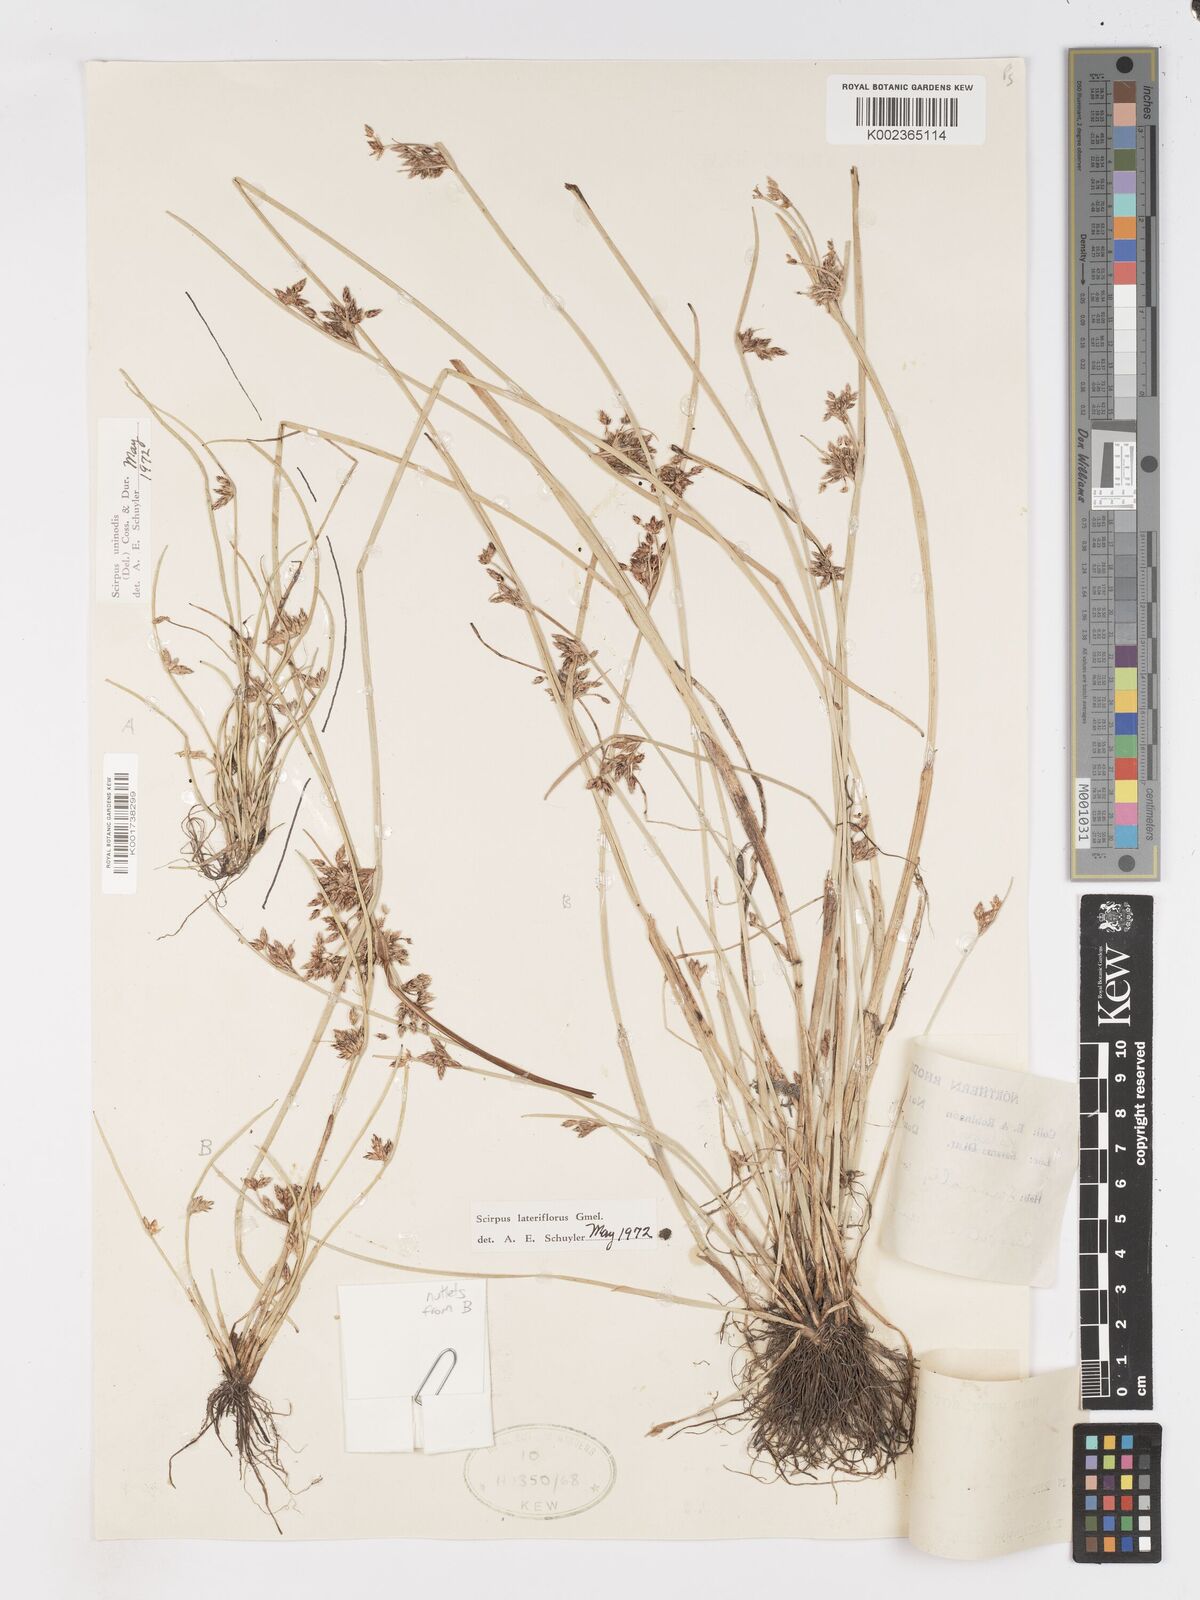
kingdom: Plantae
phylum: Tracheophyta
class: Liliopsida
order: Poales
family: Cyperaceae
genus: Schoenoplectiella
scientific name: Schoenoplectiella erecta
